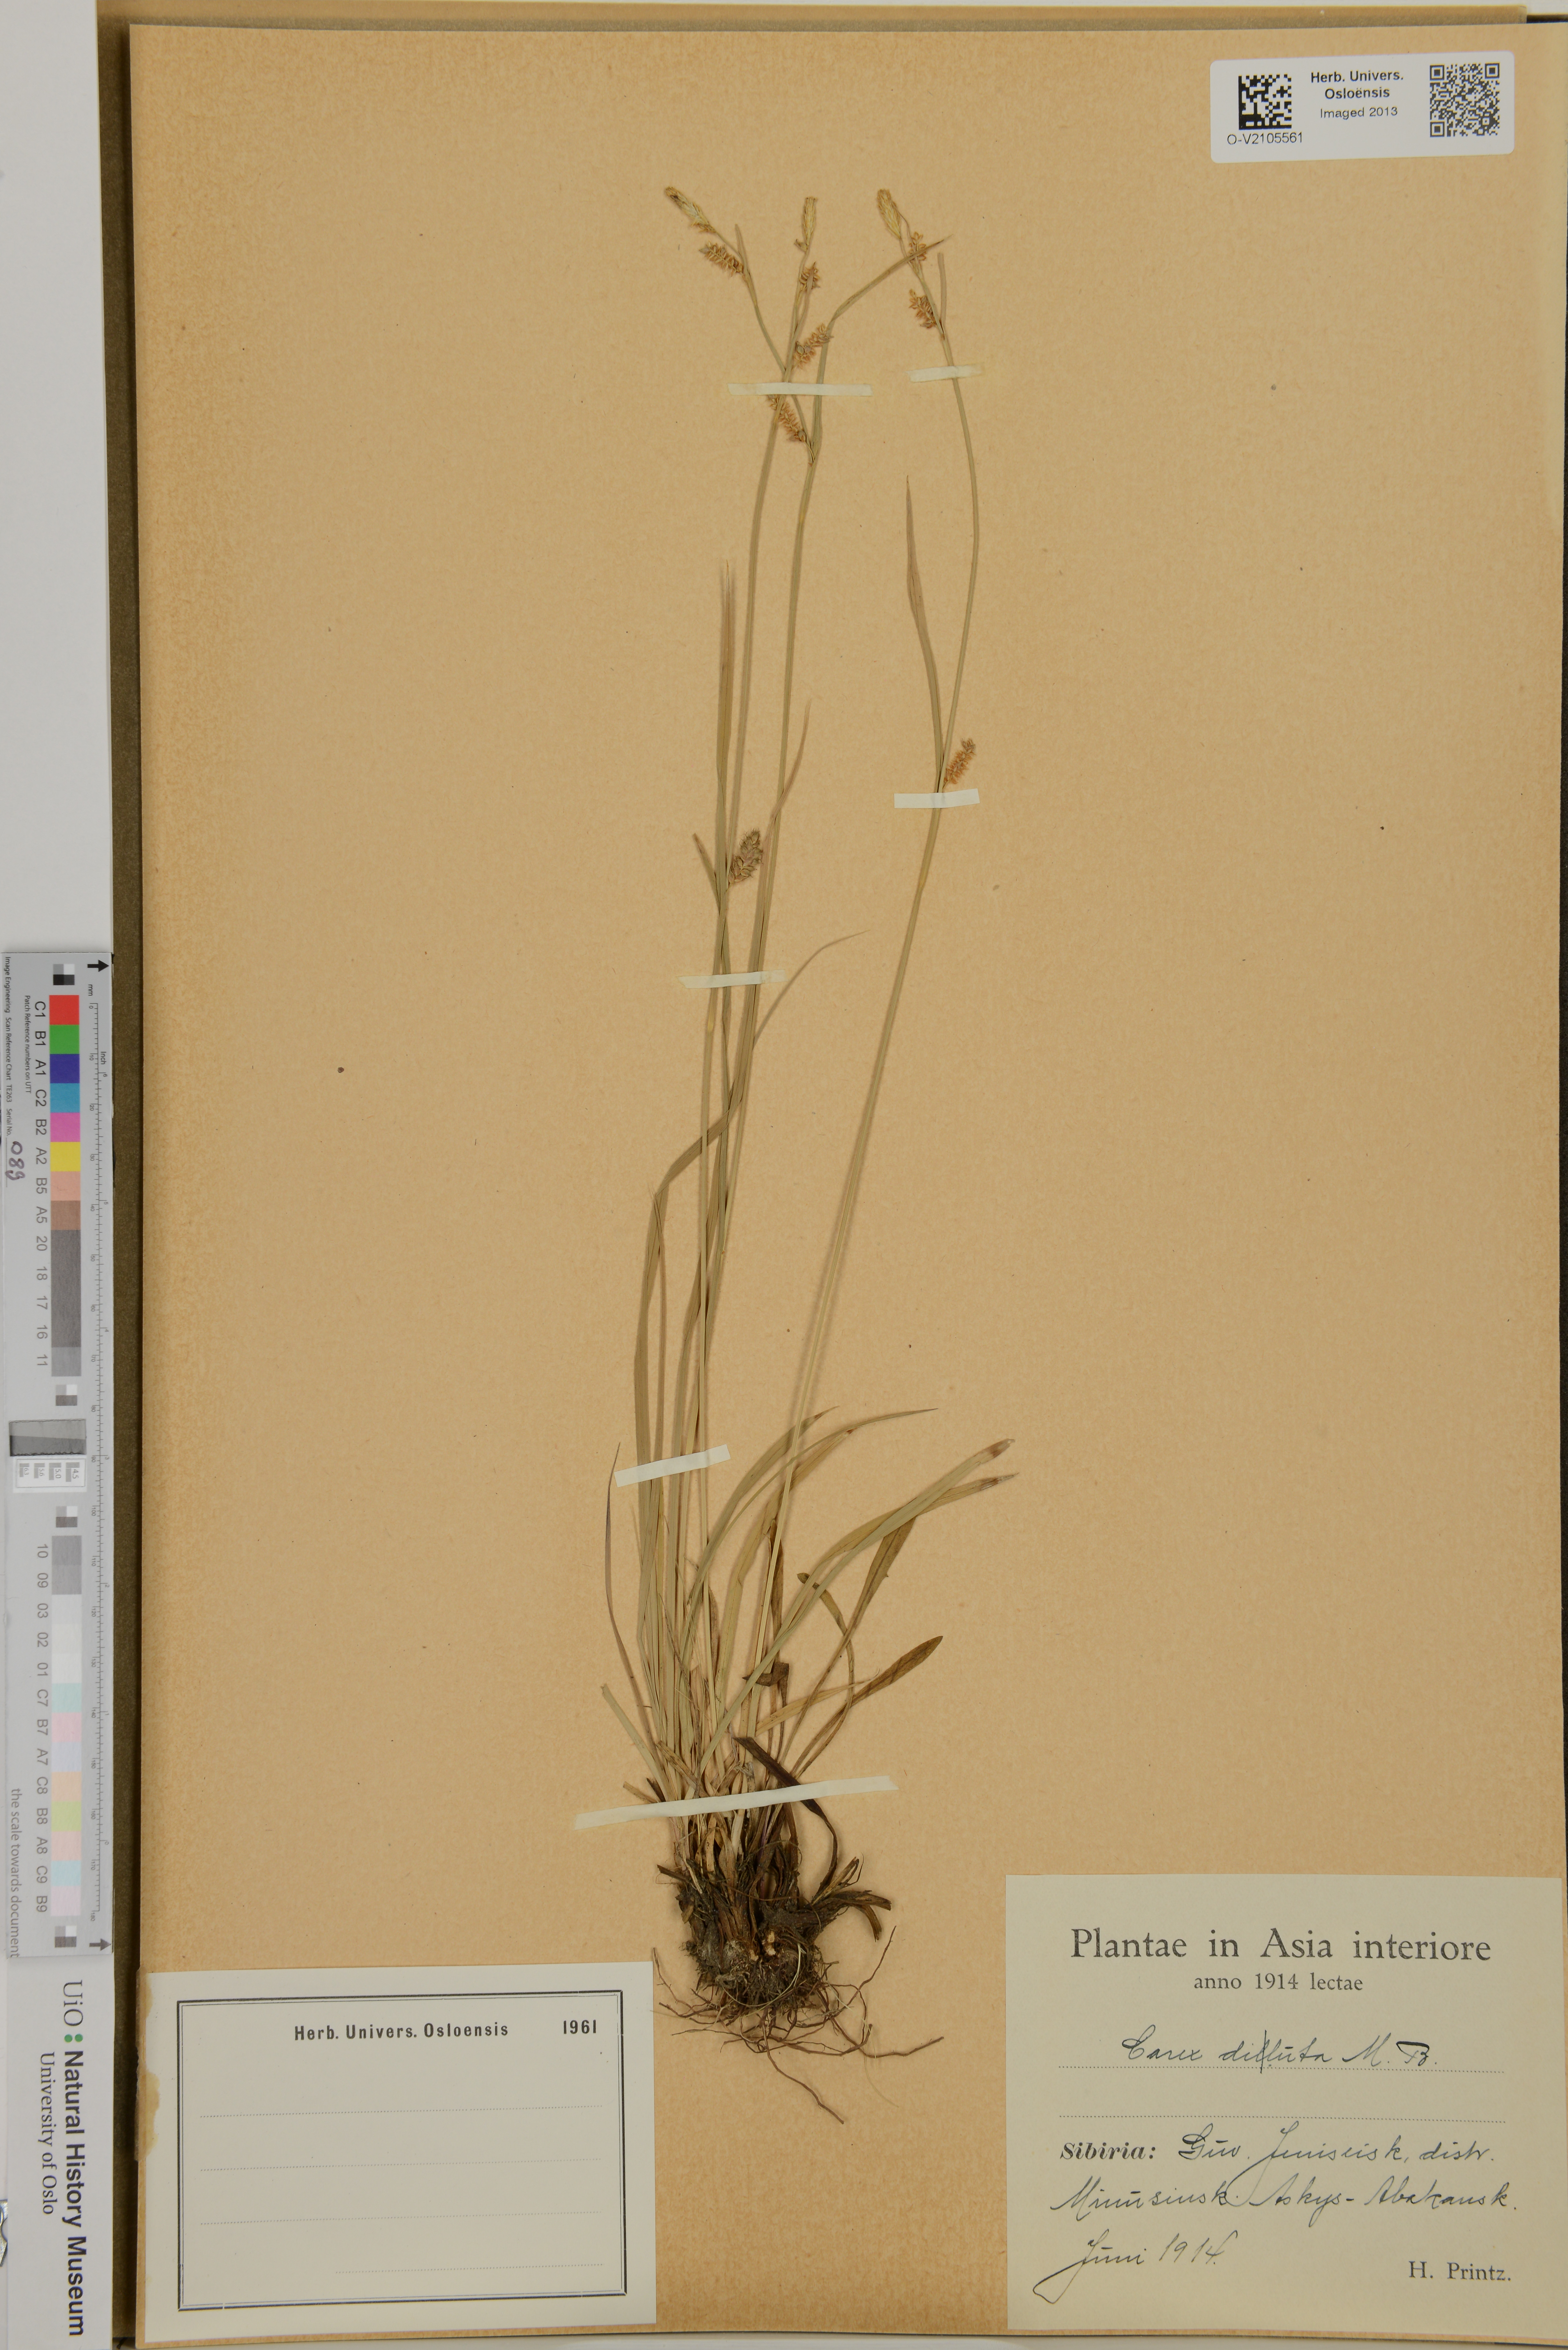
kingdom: Plantae
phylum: Tracheophyta
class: Liliopsida
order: Poales
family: Cyperaceae
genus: Carex
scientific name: Carex diluta
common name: Sedge
